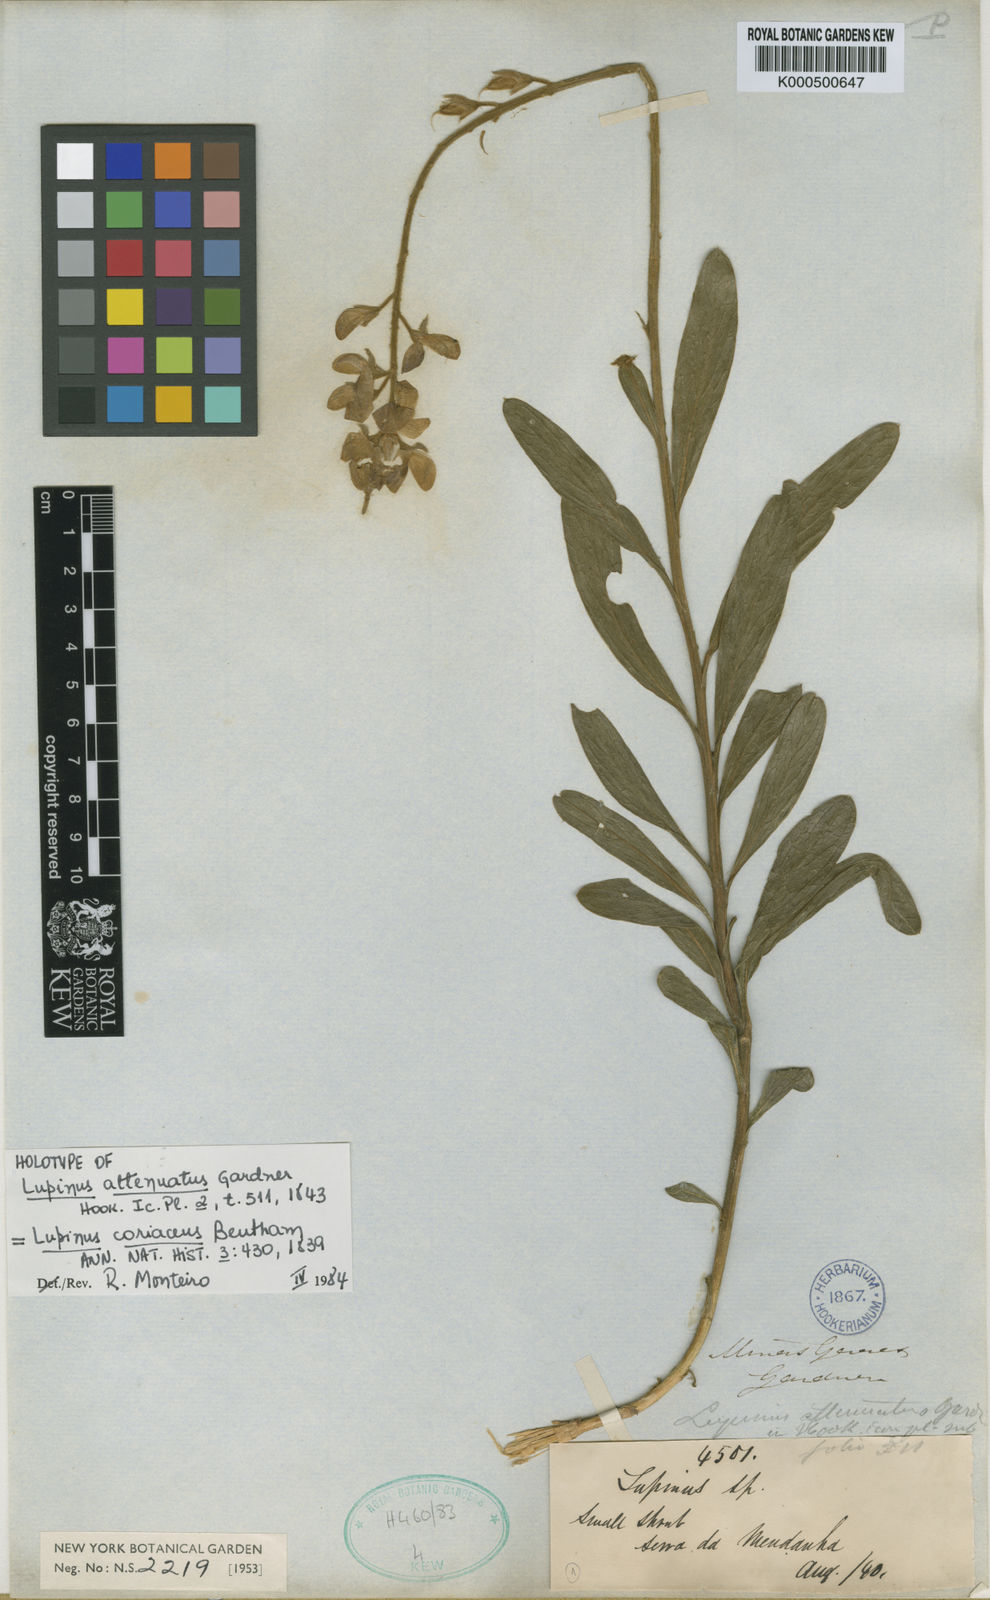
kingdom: Plantae
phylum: Tracheophyta
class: Magnoliopsida
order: Fabales
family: Fabaceae
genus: Lupinus
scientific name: Lupinus coriaceus
